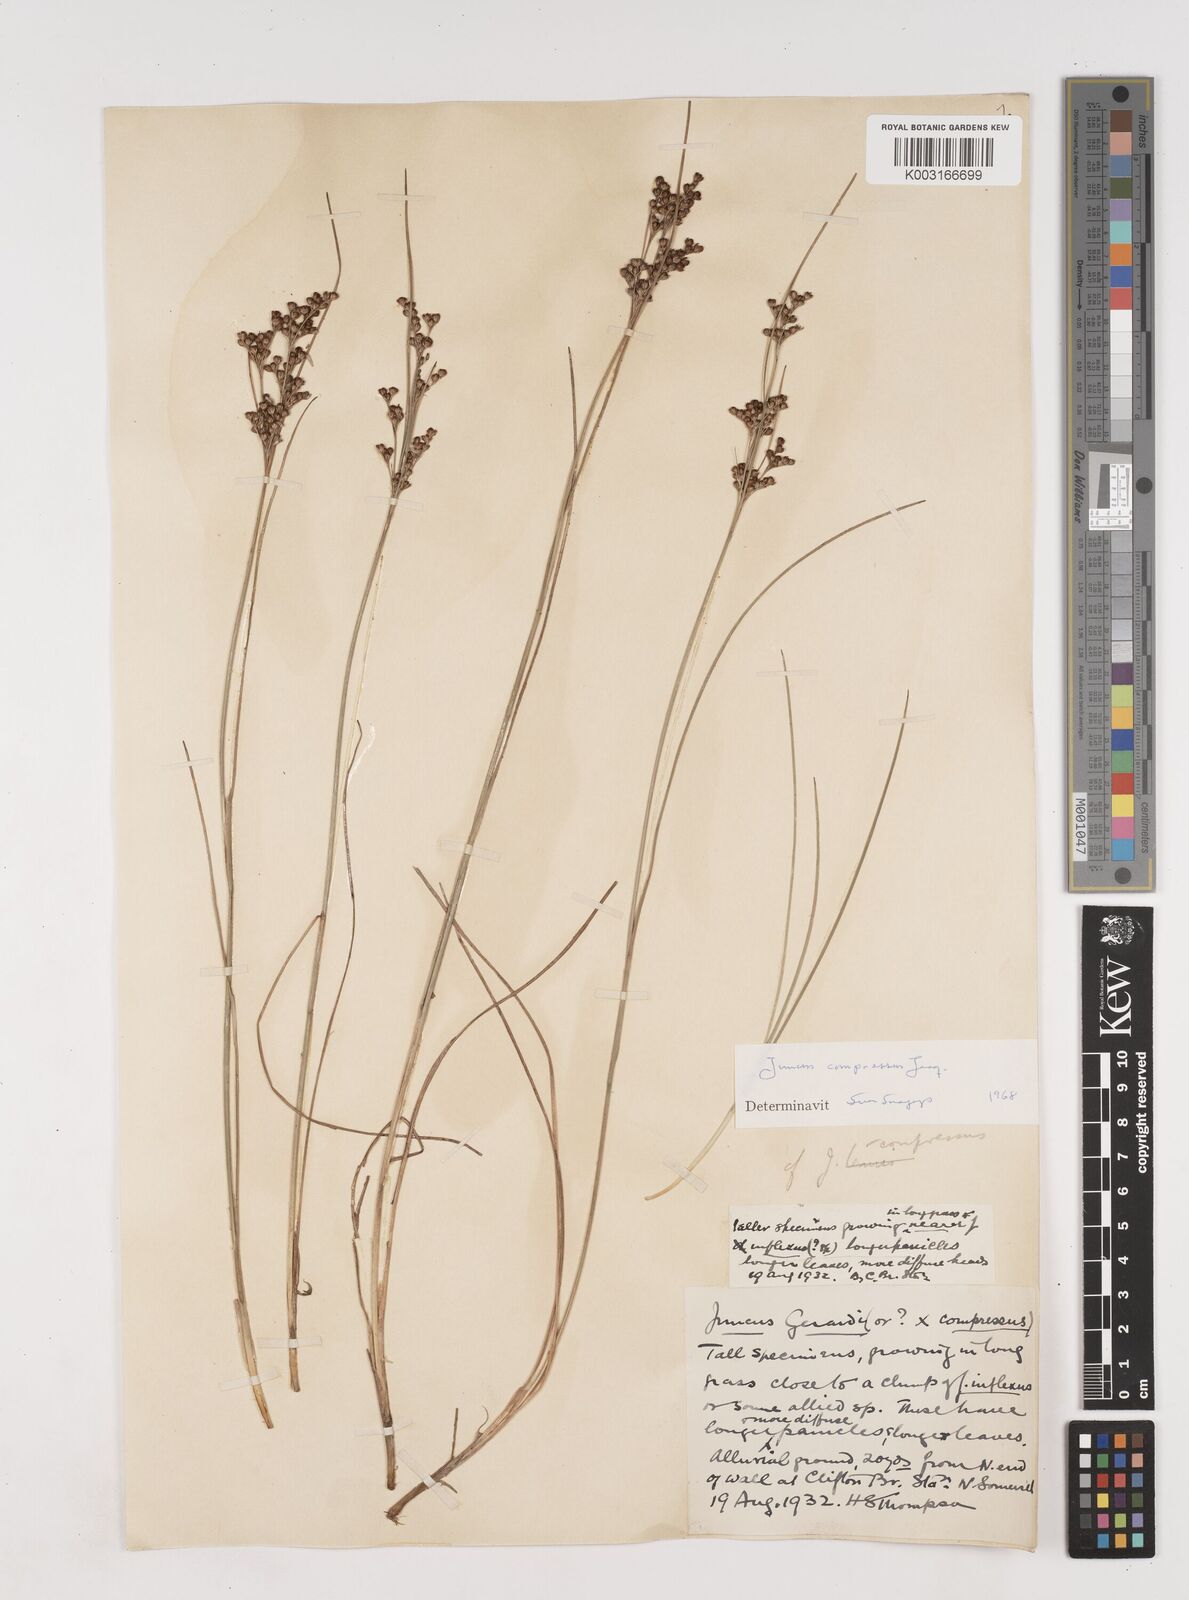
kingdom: Plantae
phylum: Tracheophyta
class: Liliopsida
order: Poales
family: Juncaceae
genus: Juncus
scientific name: Juncus compressus
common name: Round-fruited rush
